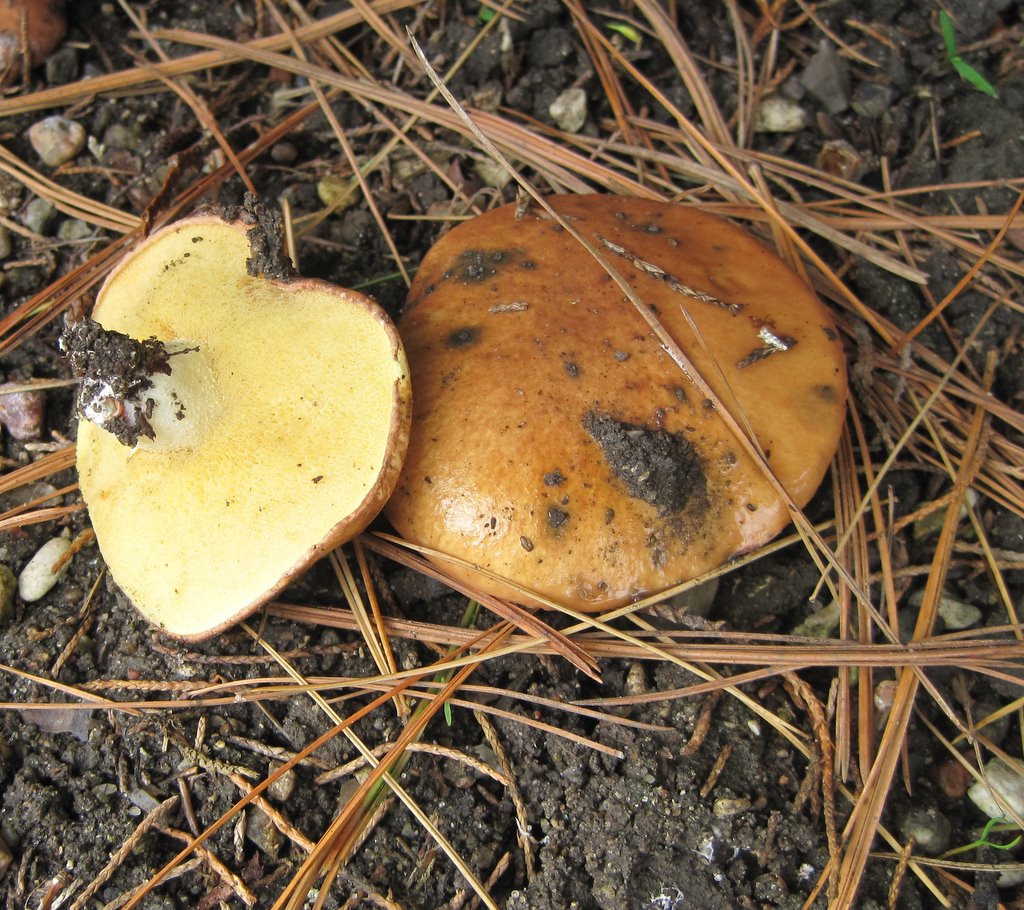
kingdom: Fungi
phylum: Basidiomycota
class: Agaricomycetes
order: Boletales
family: Suillaceae
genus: Suillus
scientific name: Suillus granulatus
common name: kornet slimrørhat
